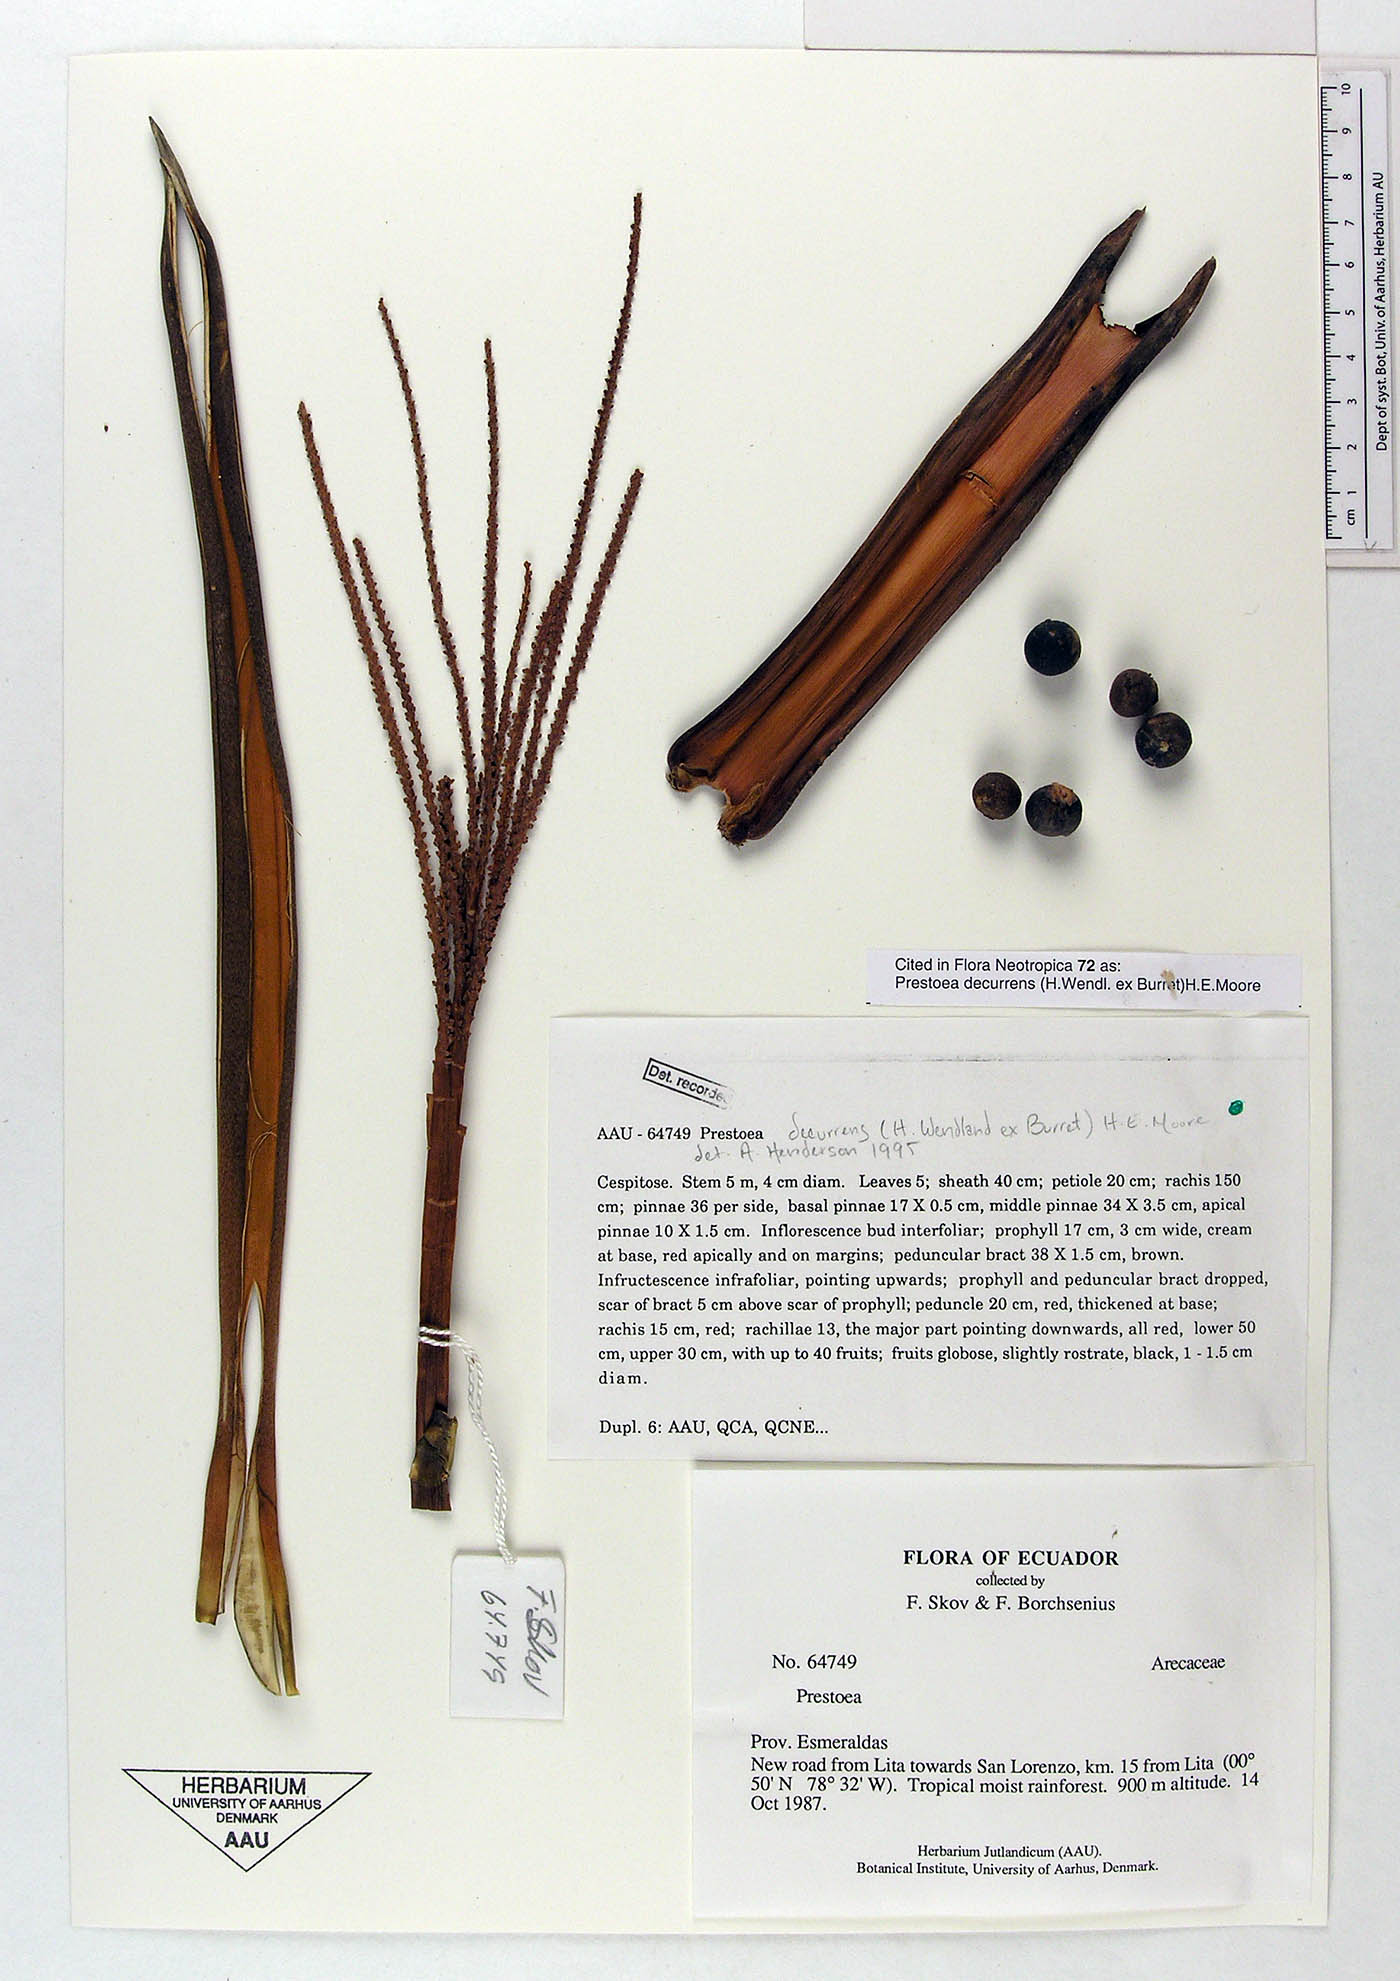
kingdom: Plantae
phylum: Tracheophyta
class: Liliopsida
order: Arecales
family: Arecaceae
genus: Prestoea
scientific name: Prestoea decurrens
